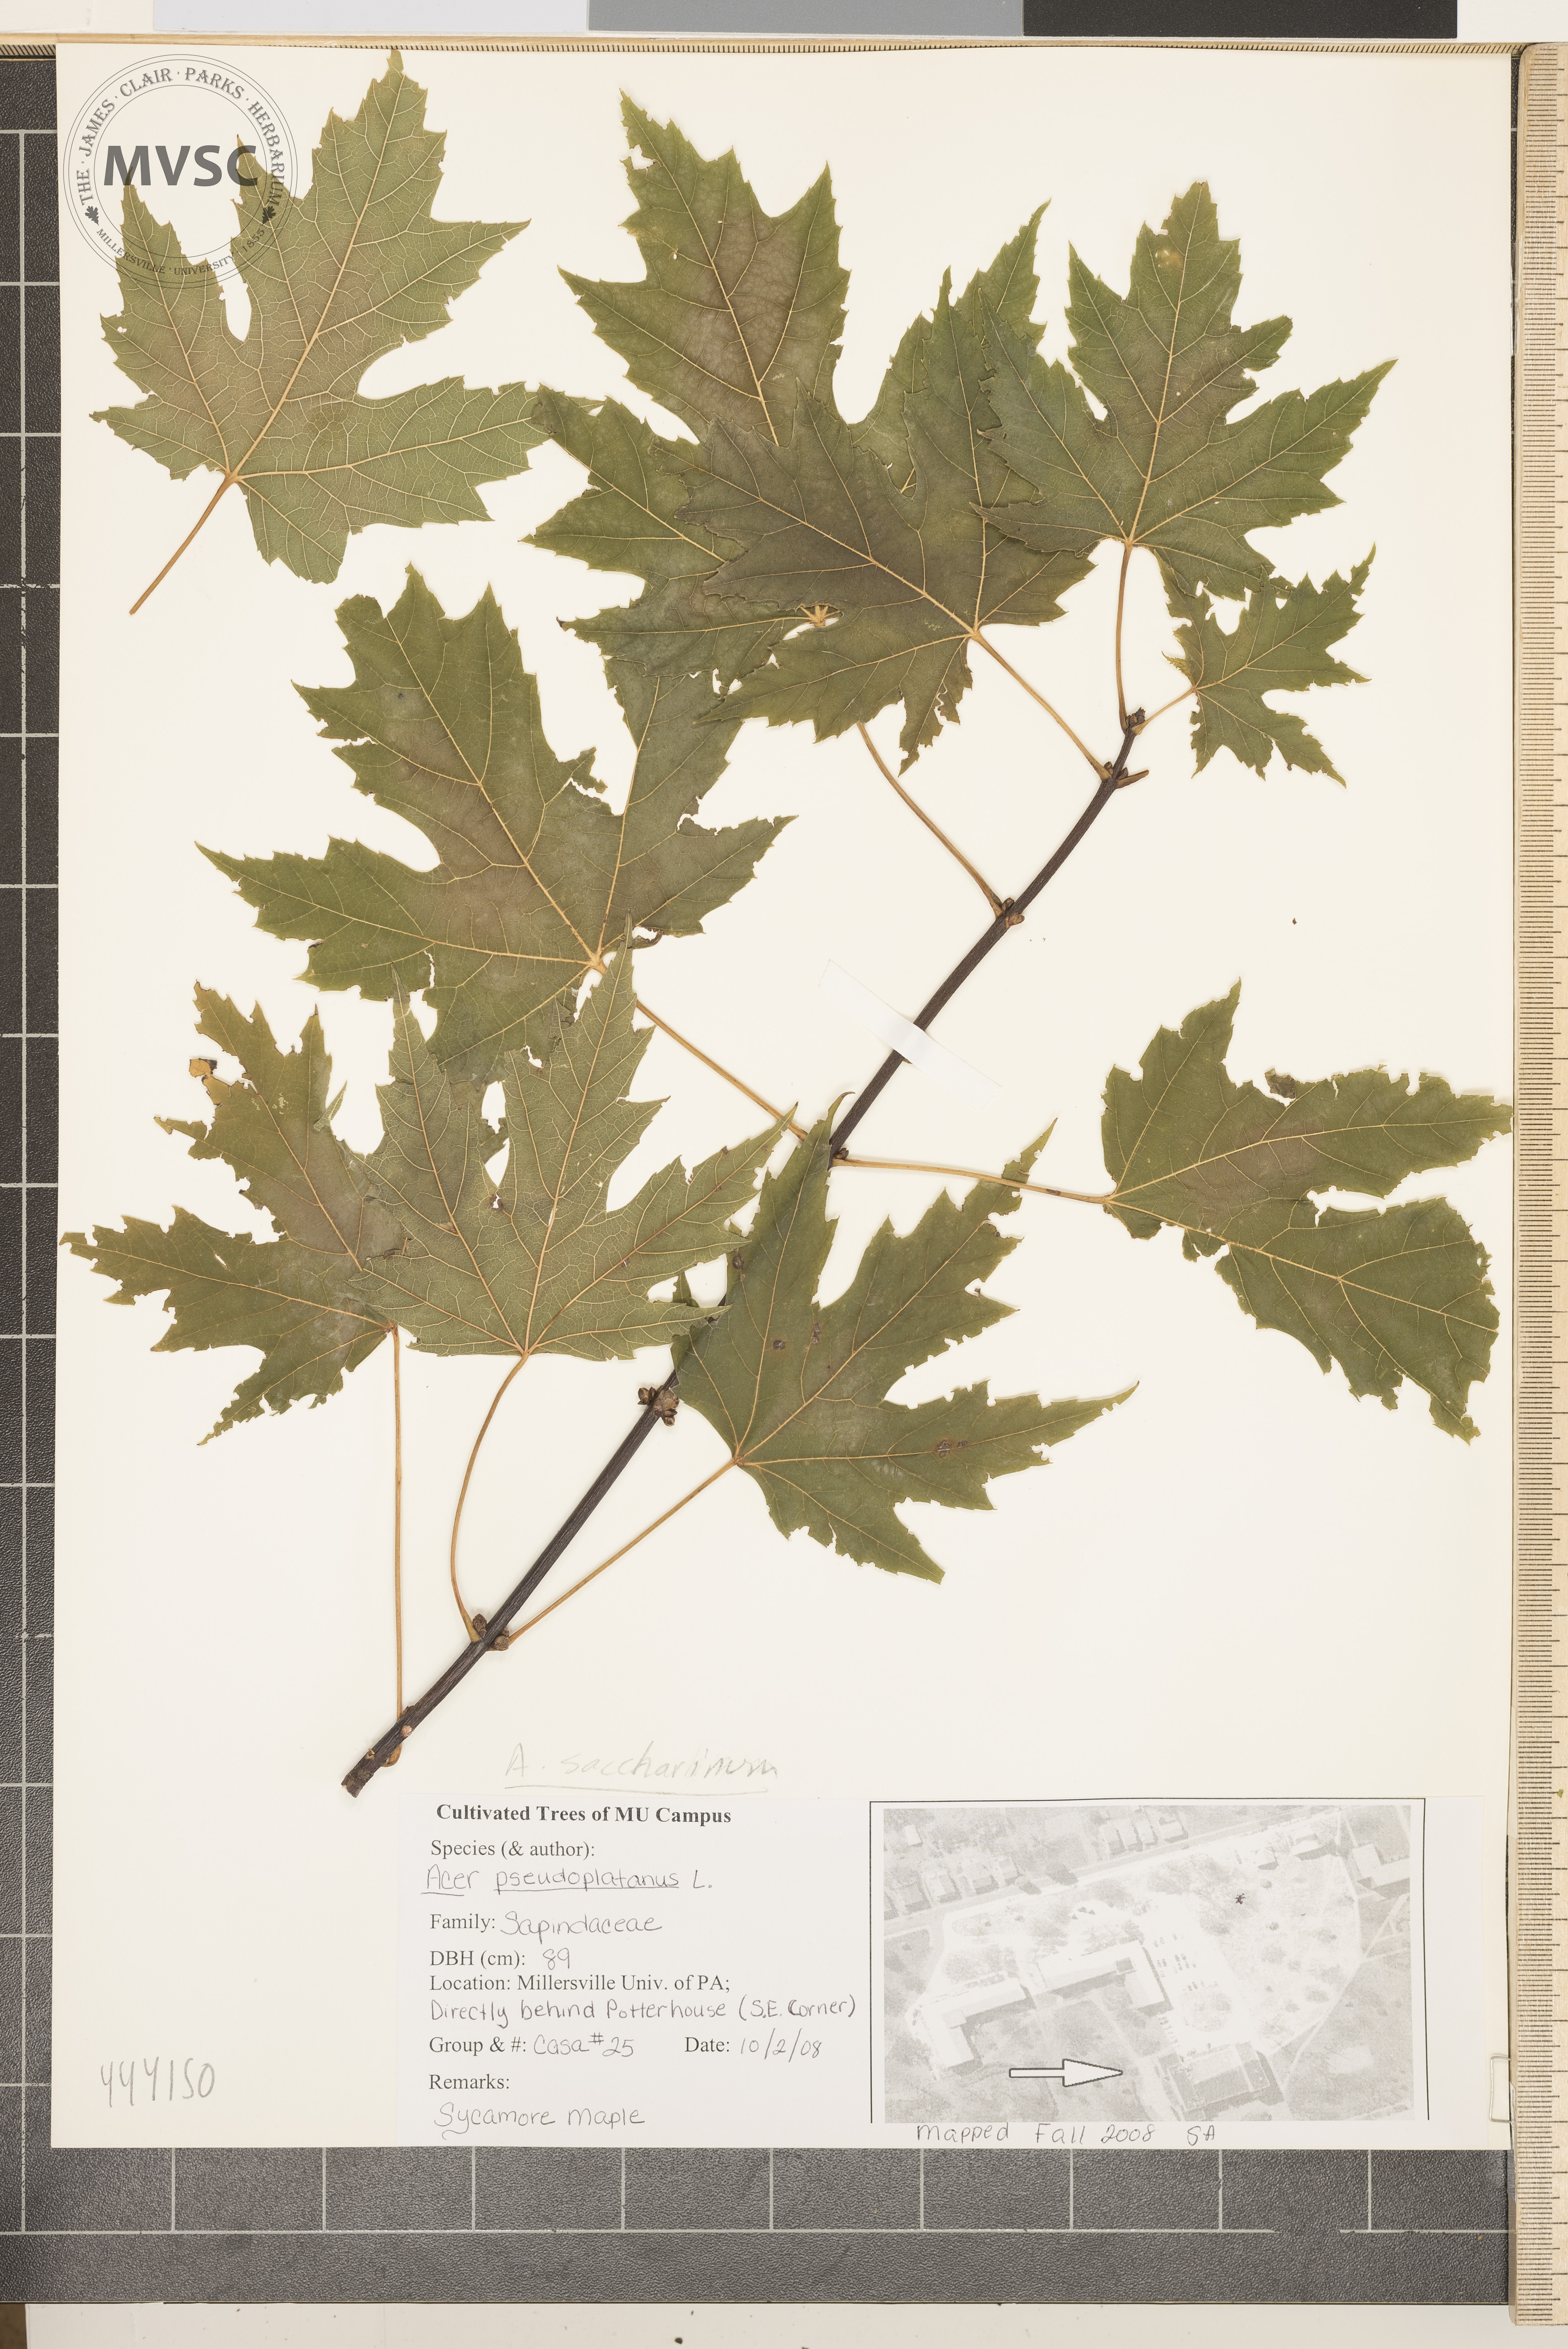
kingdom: Plantae
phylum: Tracheophyta
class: Magnoliopsida
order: Sapindales
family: Sapindaceae
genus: Acer
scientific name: Acer saccharinum
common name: Silver maple
